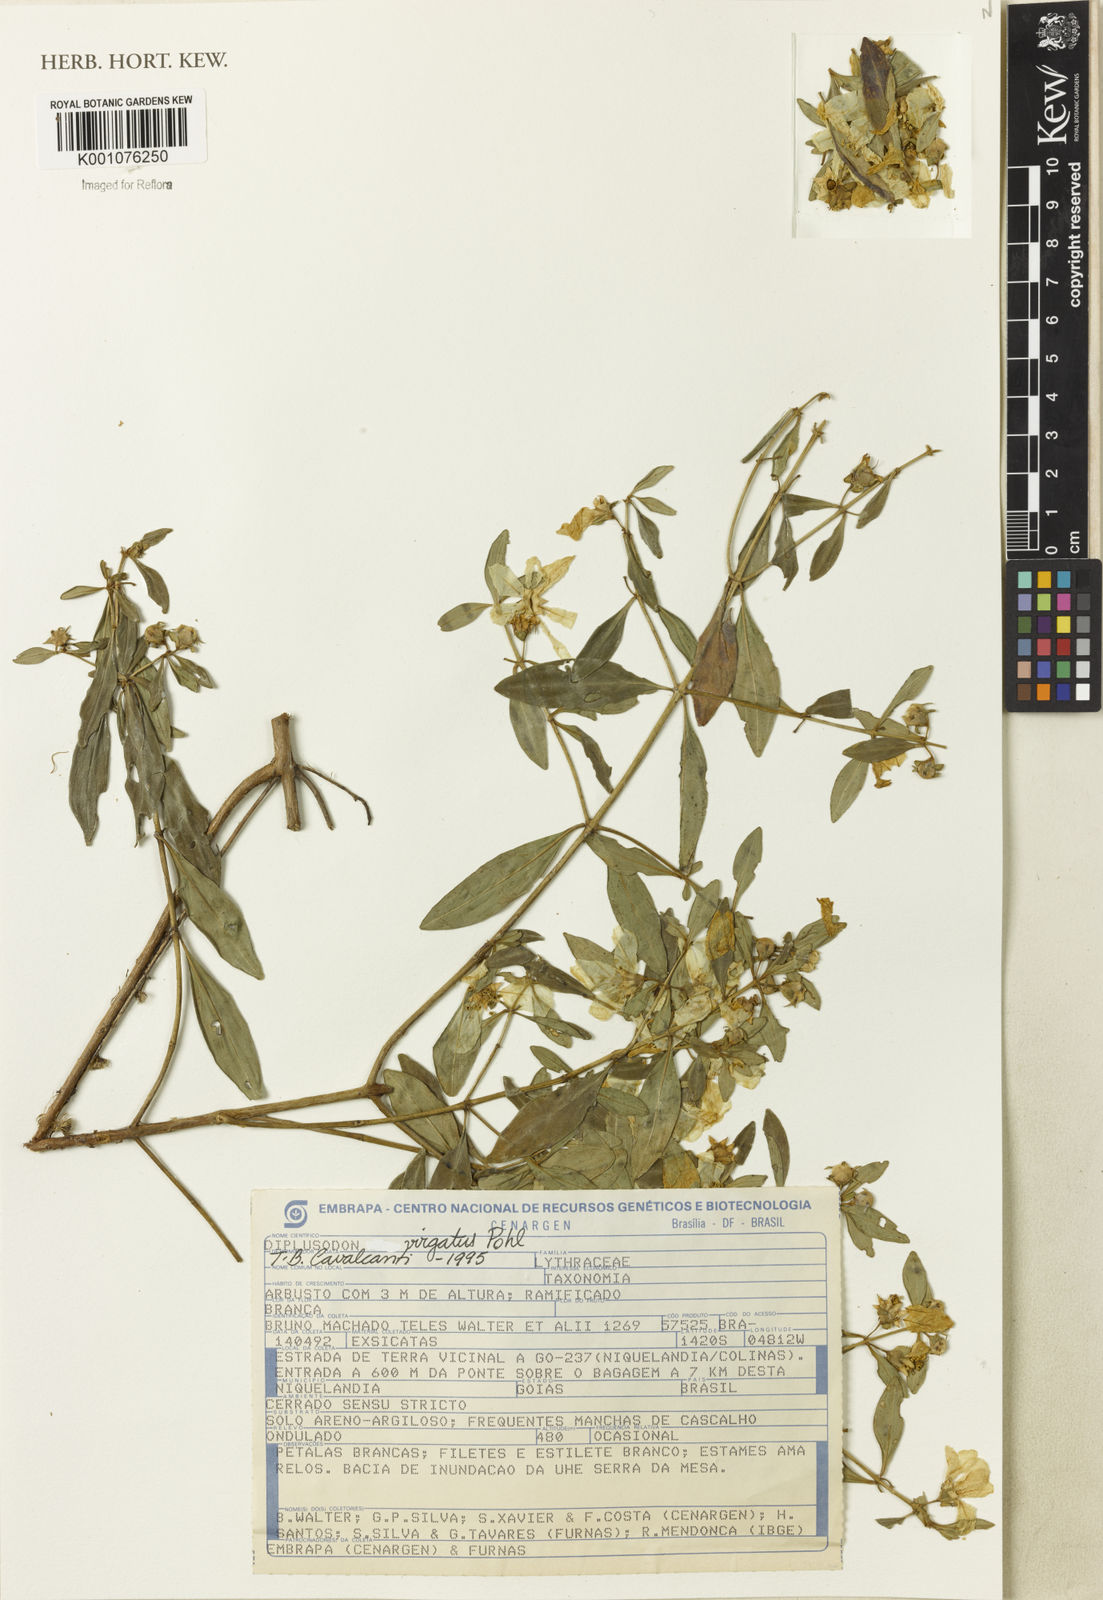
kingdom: Plantae
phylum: Tracheophyta
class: Magnoliopsida
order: Myrtales
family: Lythraceae
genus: Diplusodon
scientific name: Diplusodon virgatus
